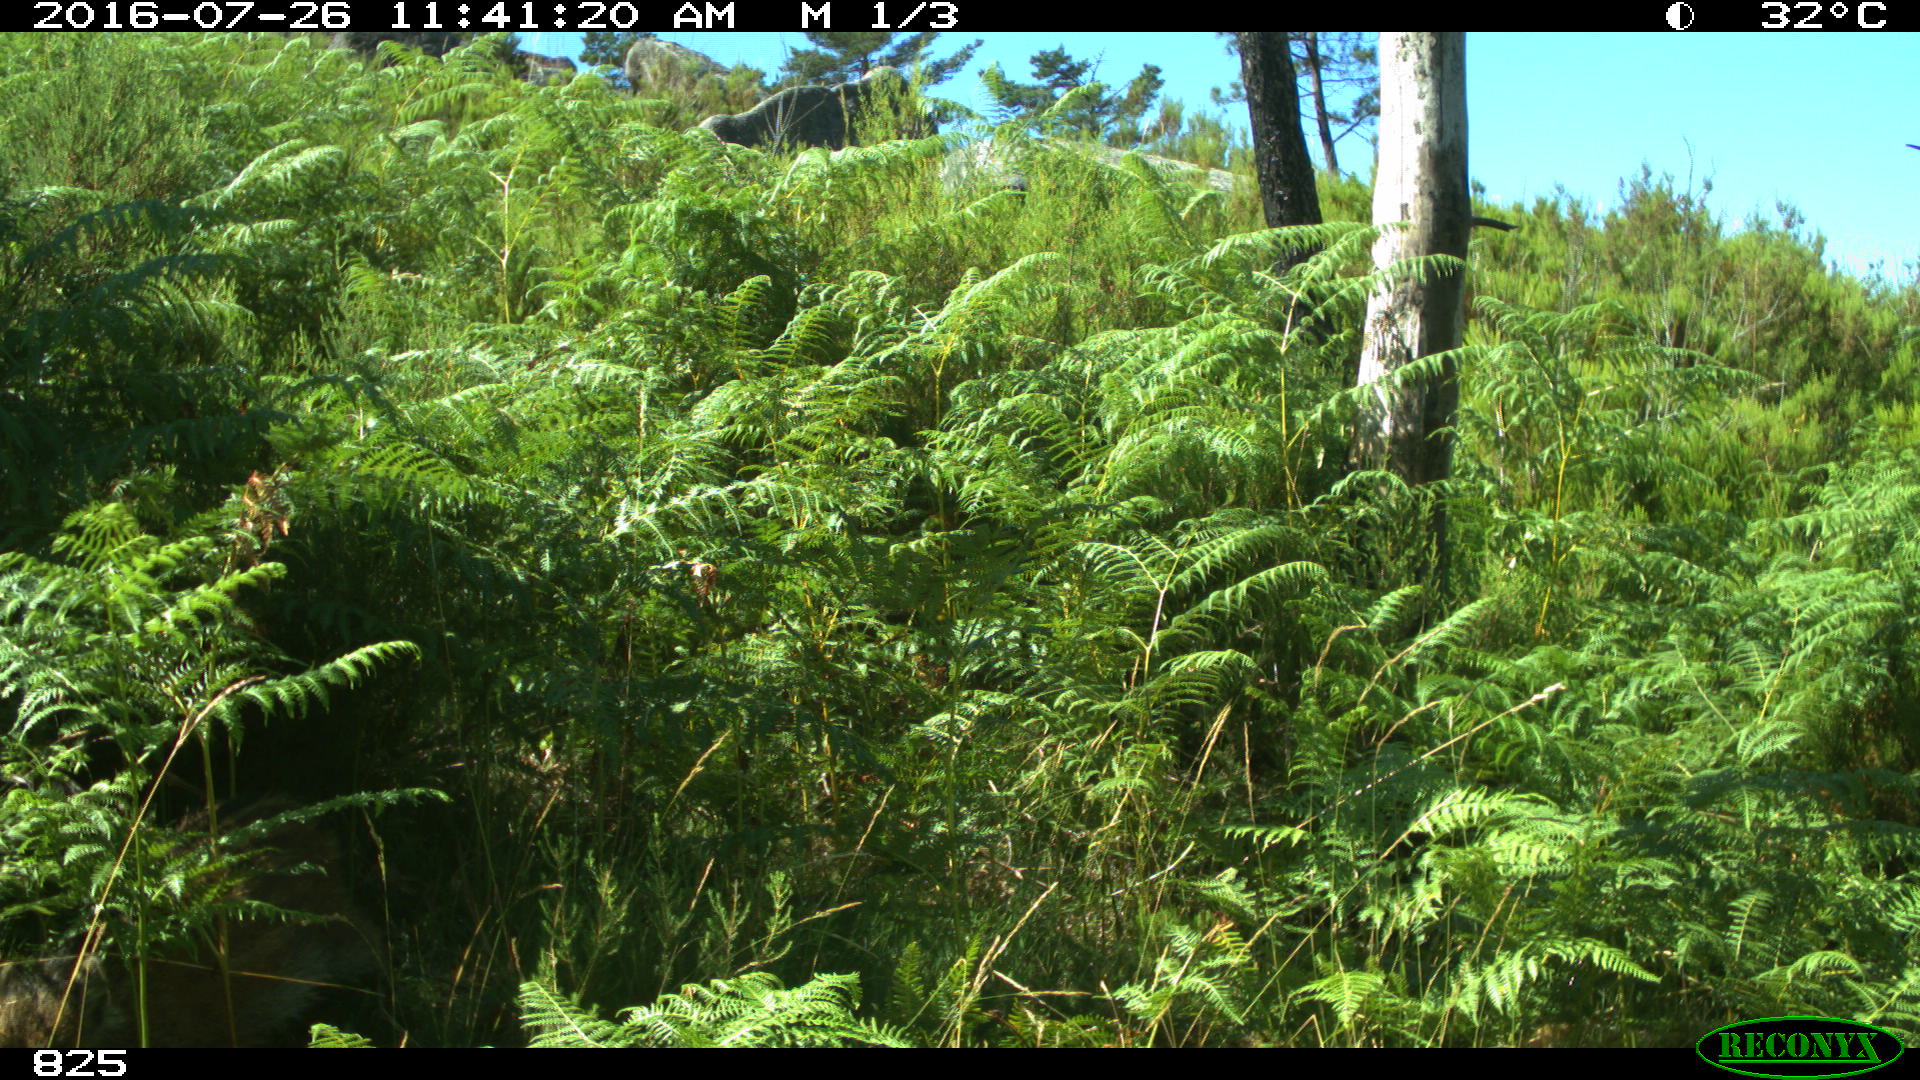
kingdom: Animalia
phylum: Chordata
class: Mammalia
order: Artiodactyla
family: Suidae
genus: Sus
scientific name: Sus scrofa
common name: Wild boar
